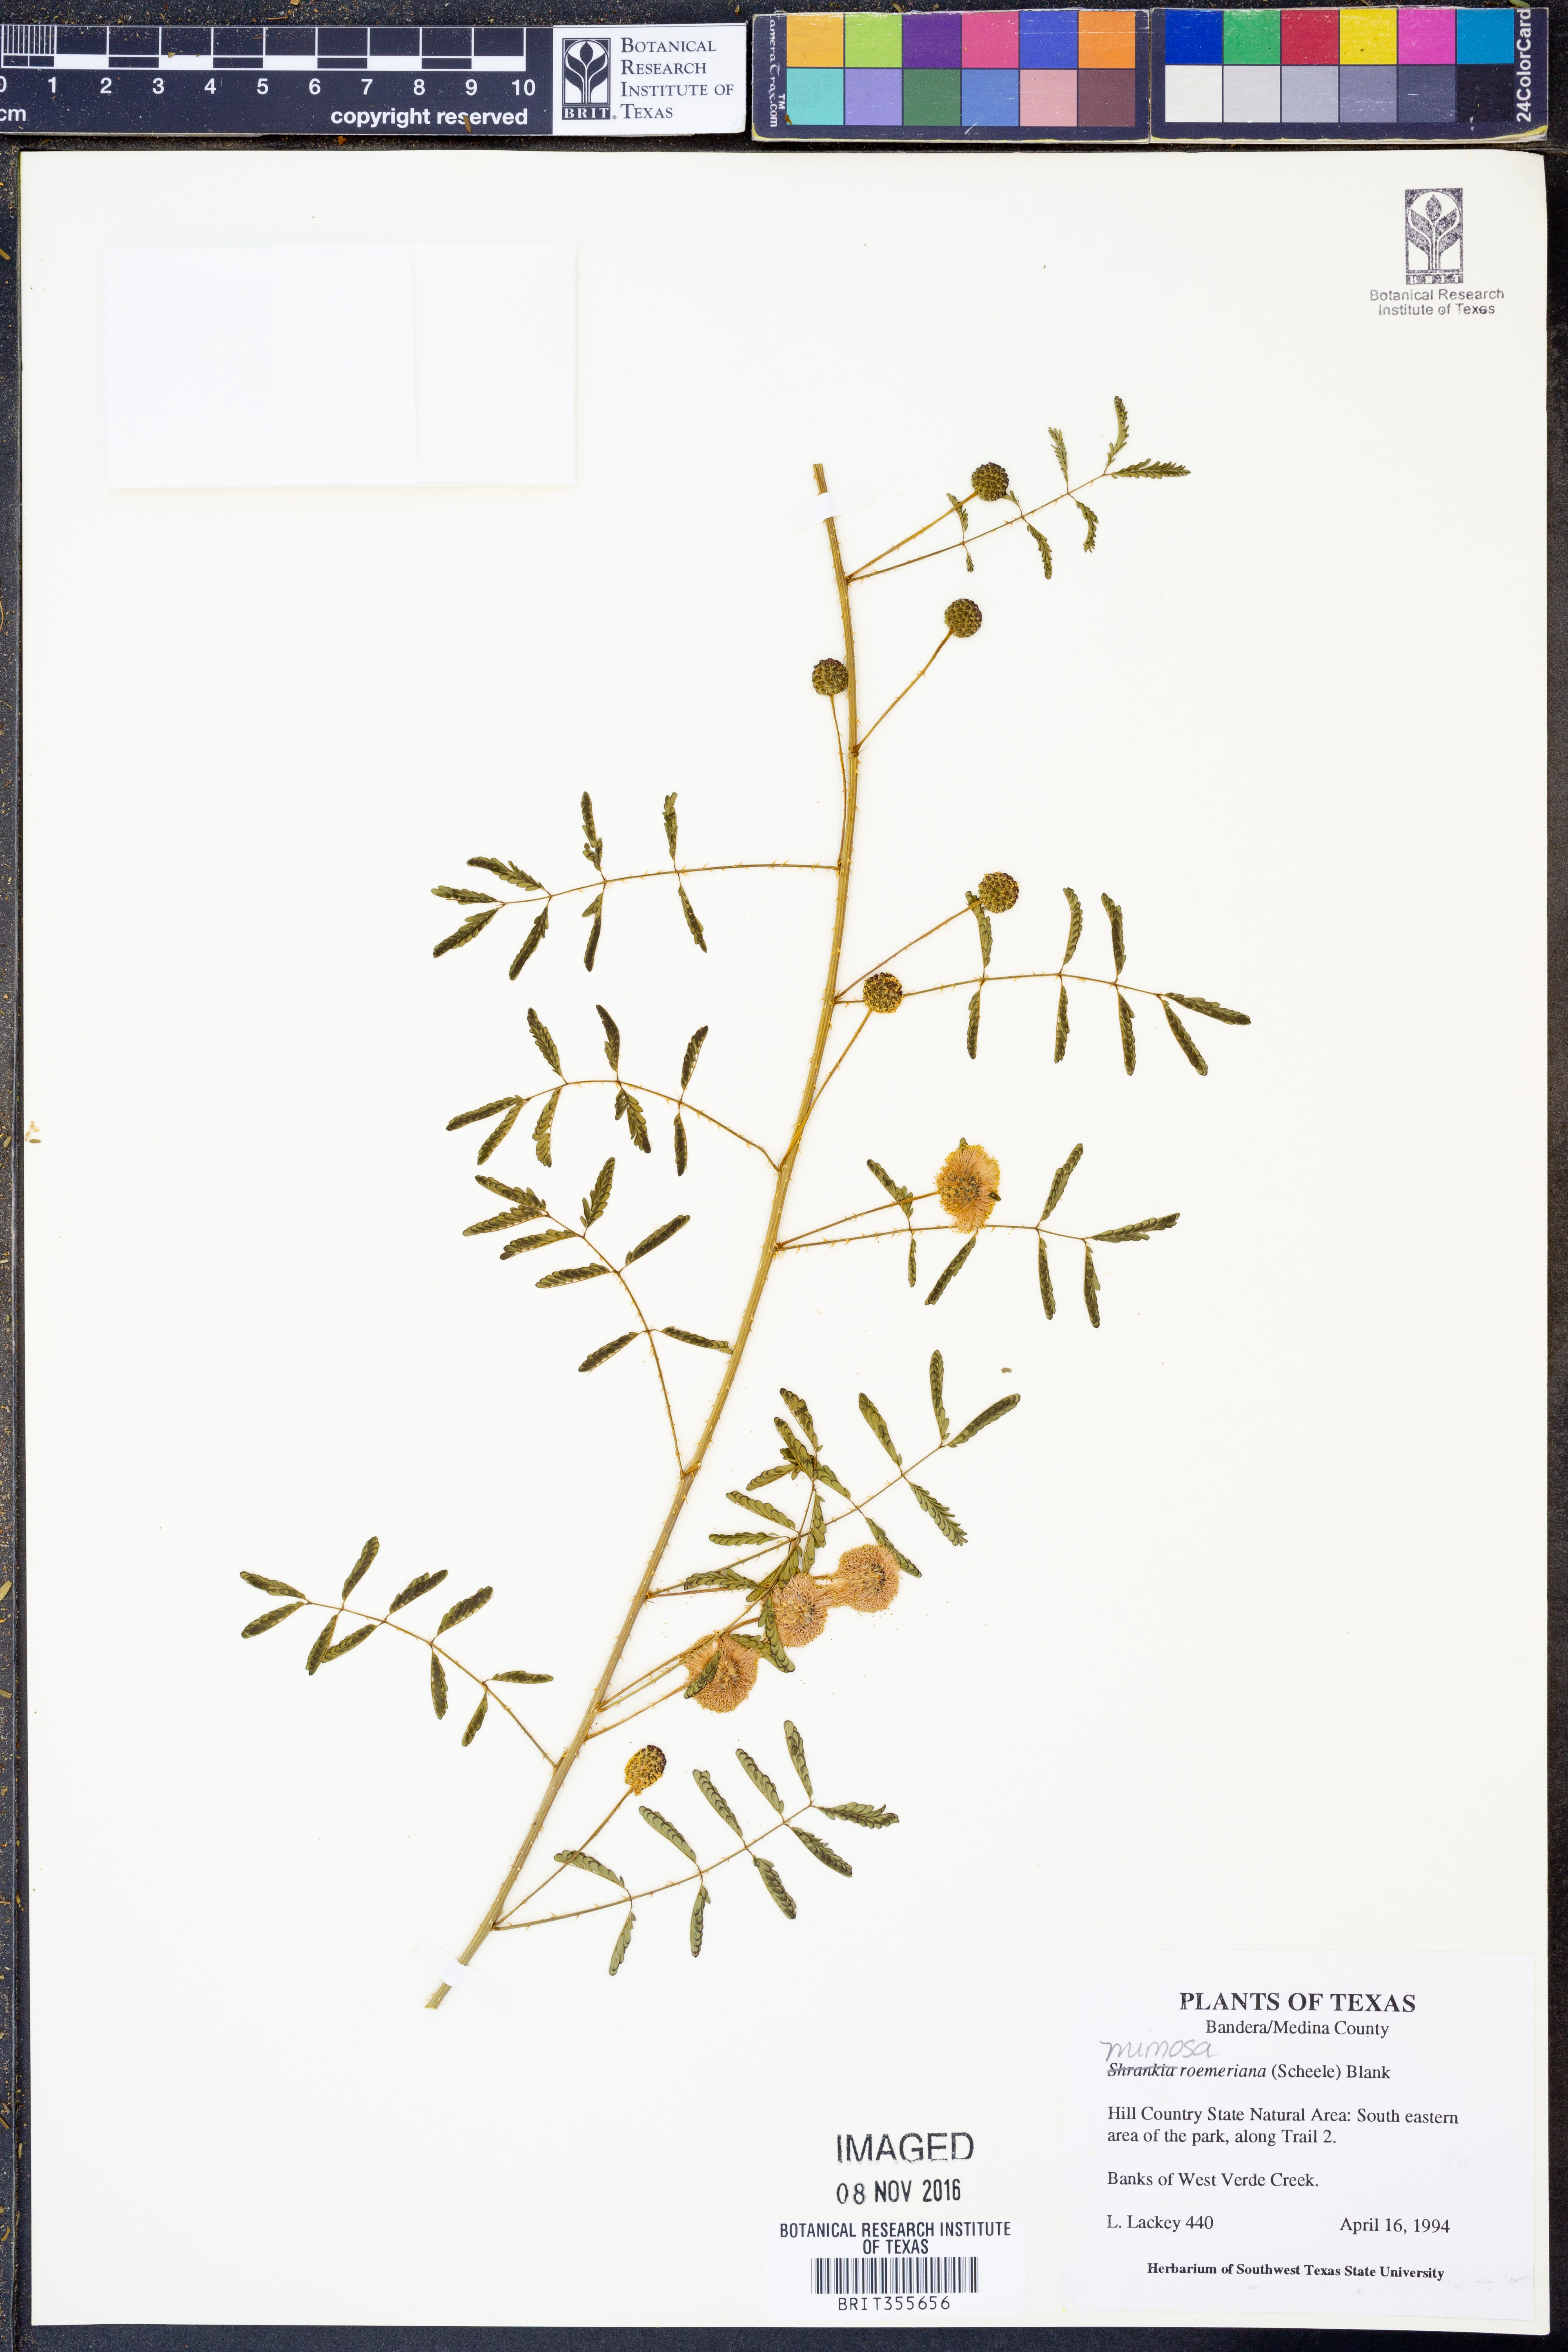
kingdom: Plantae
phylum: Tracheophyta
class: Magnoliopsida
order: Fabales
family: Fabaceae
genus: Mimosa
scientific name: Mimosa quadrivalvis
